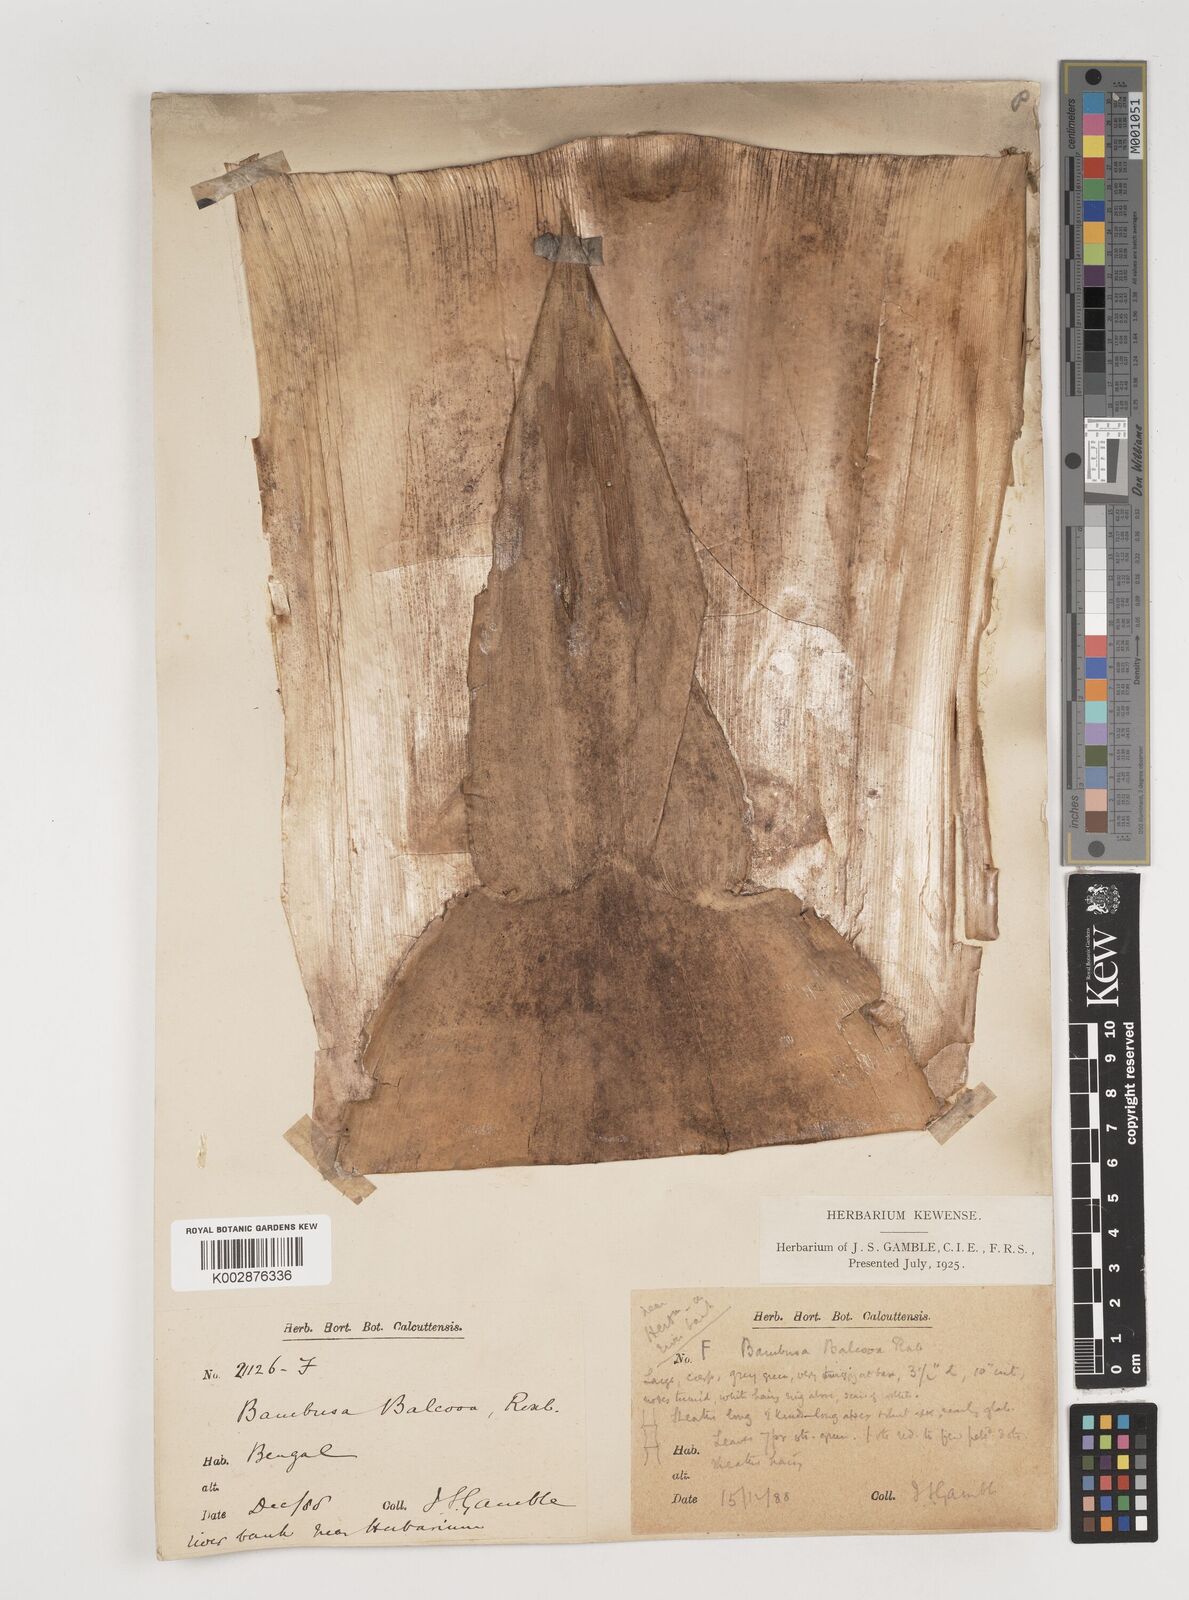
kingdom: Plantae
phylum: Tracheophyta
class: Liliopsida
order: Poales
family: Poaceae
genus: Bambusa
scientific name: Bambusa balcooa
